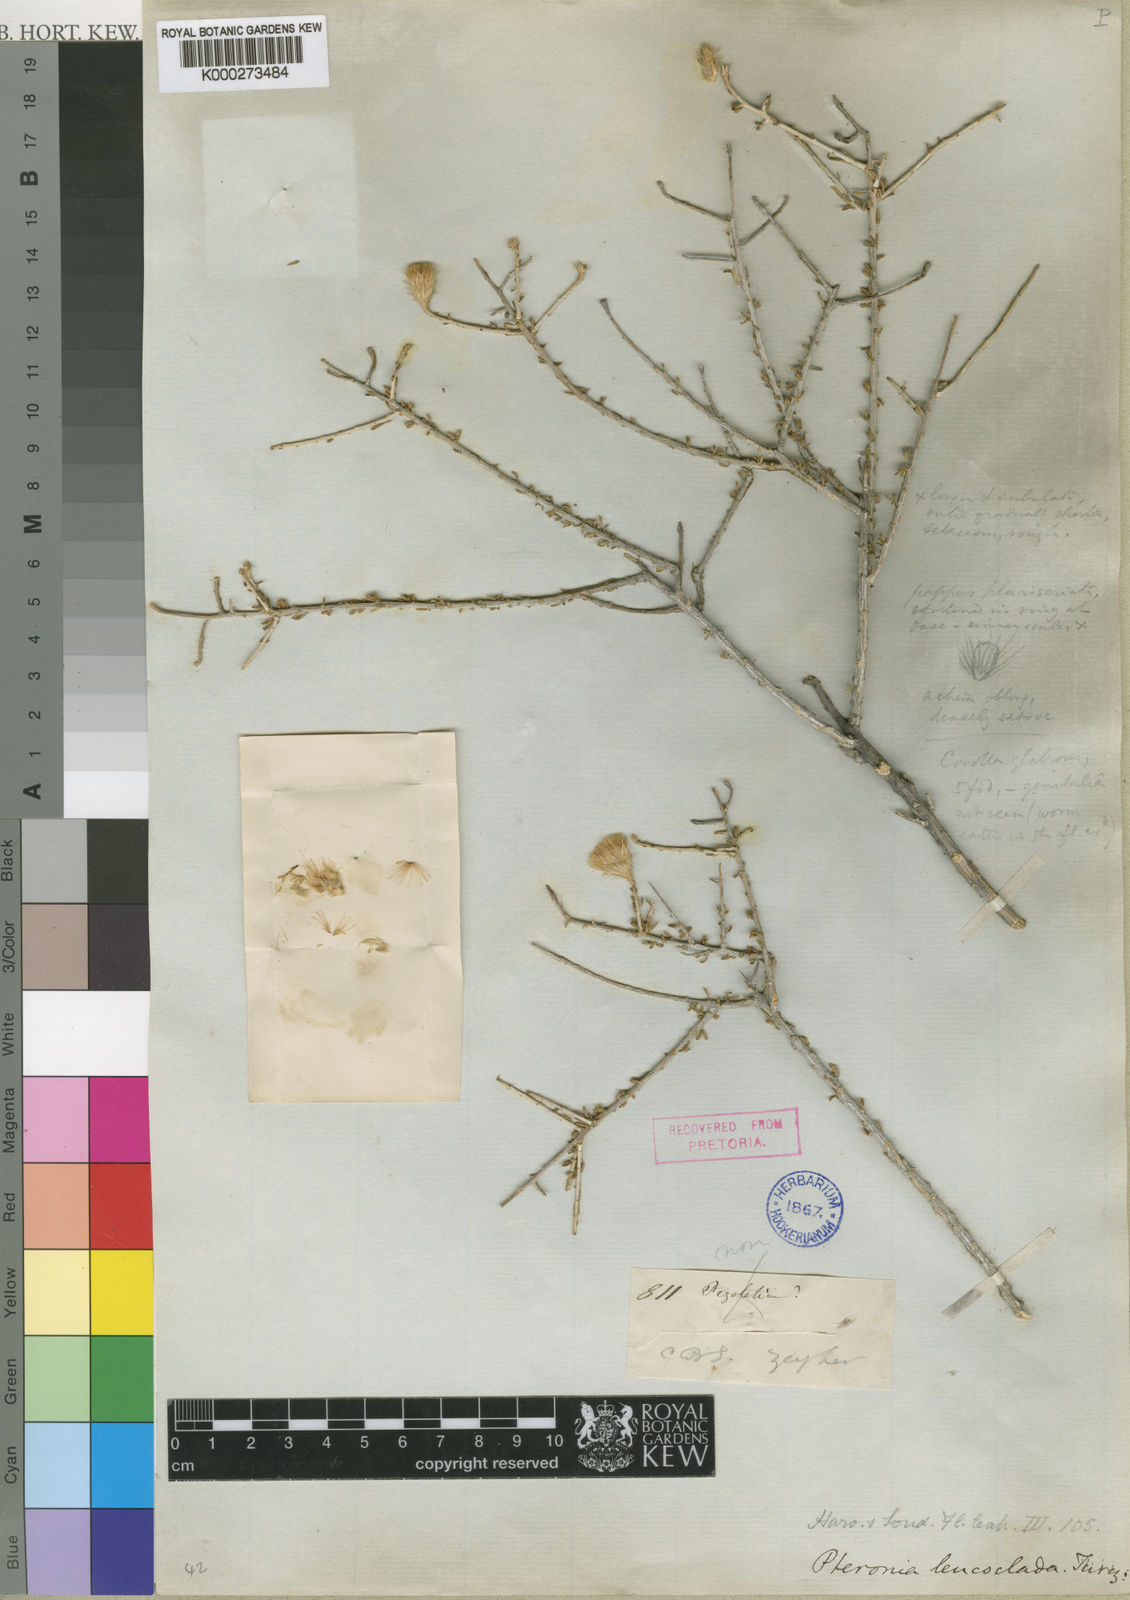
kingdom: Plantae
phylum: Tracheophyta
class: Magnoliopsida
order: Asterales
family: Asteraceae
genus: Pteronia
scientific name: Pteronia leucoclada
